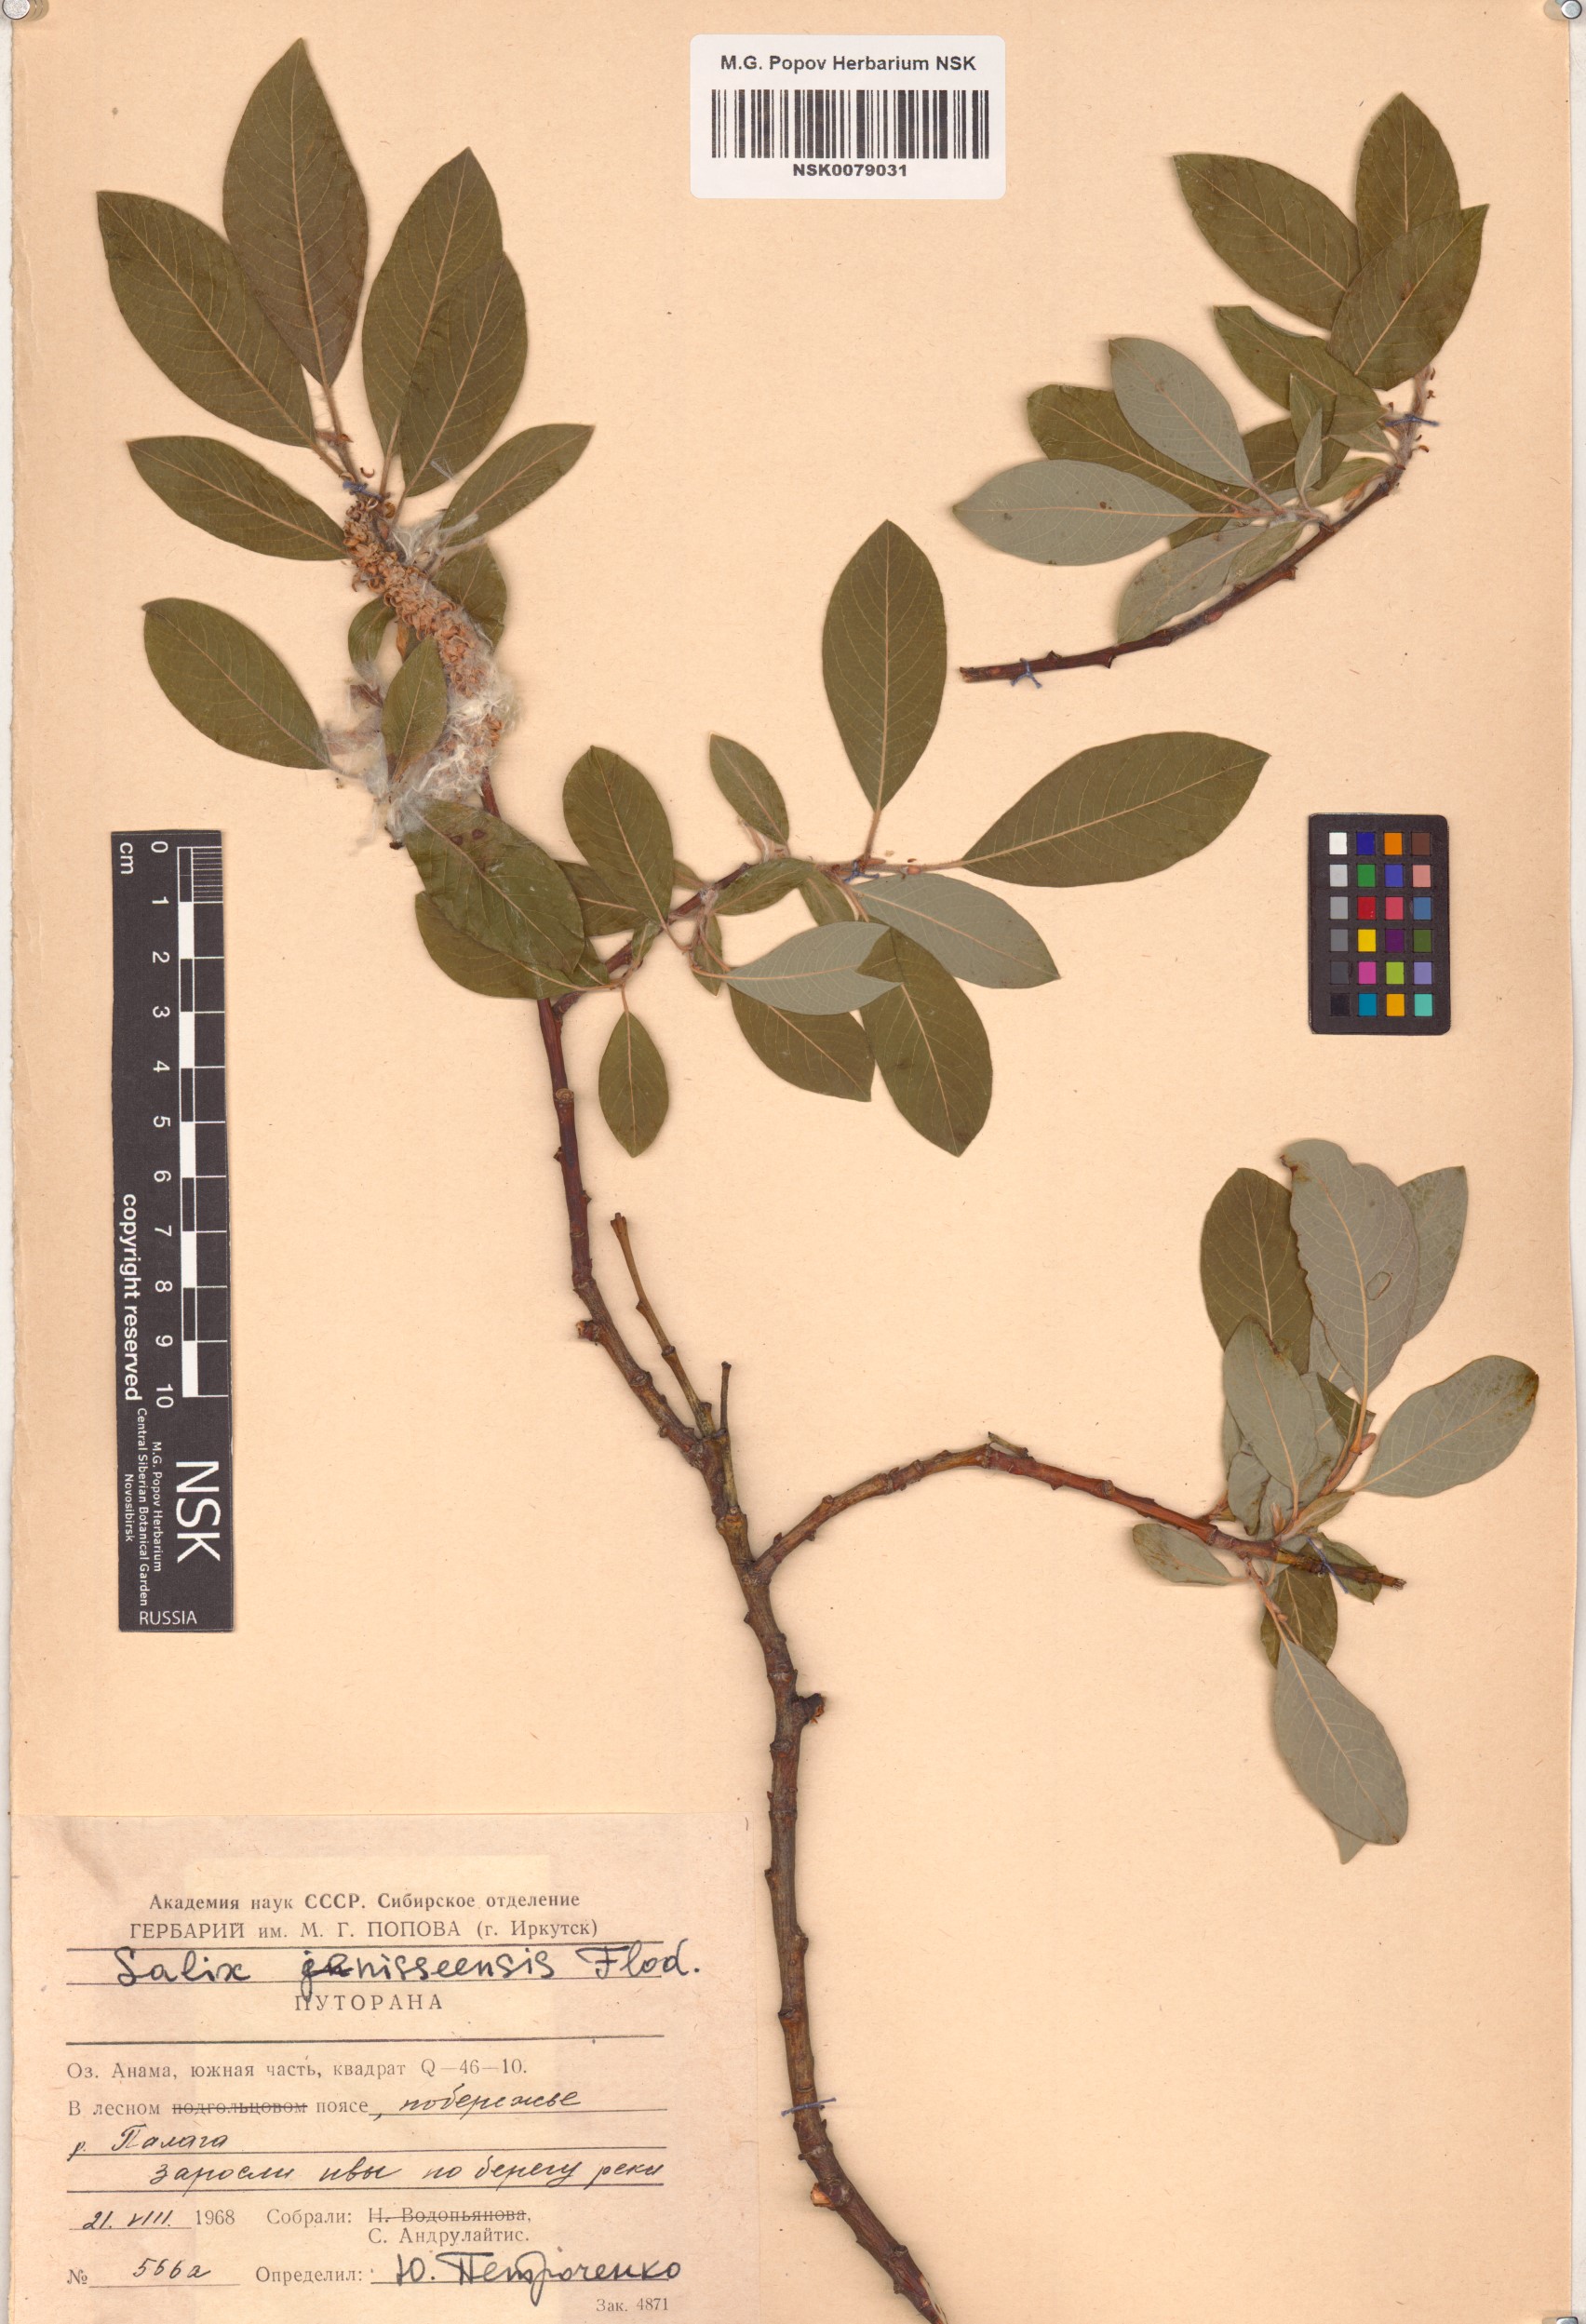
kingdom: Plantae
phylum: Tracheophyta
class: Magnoliopsida
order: Malpighiales
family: Salicaceae
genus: Salix
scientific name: Salix jenisseensis
